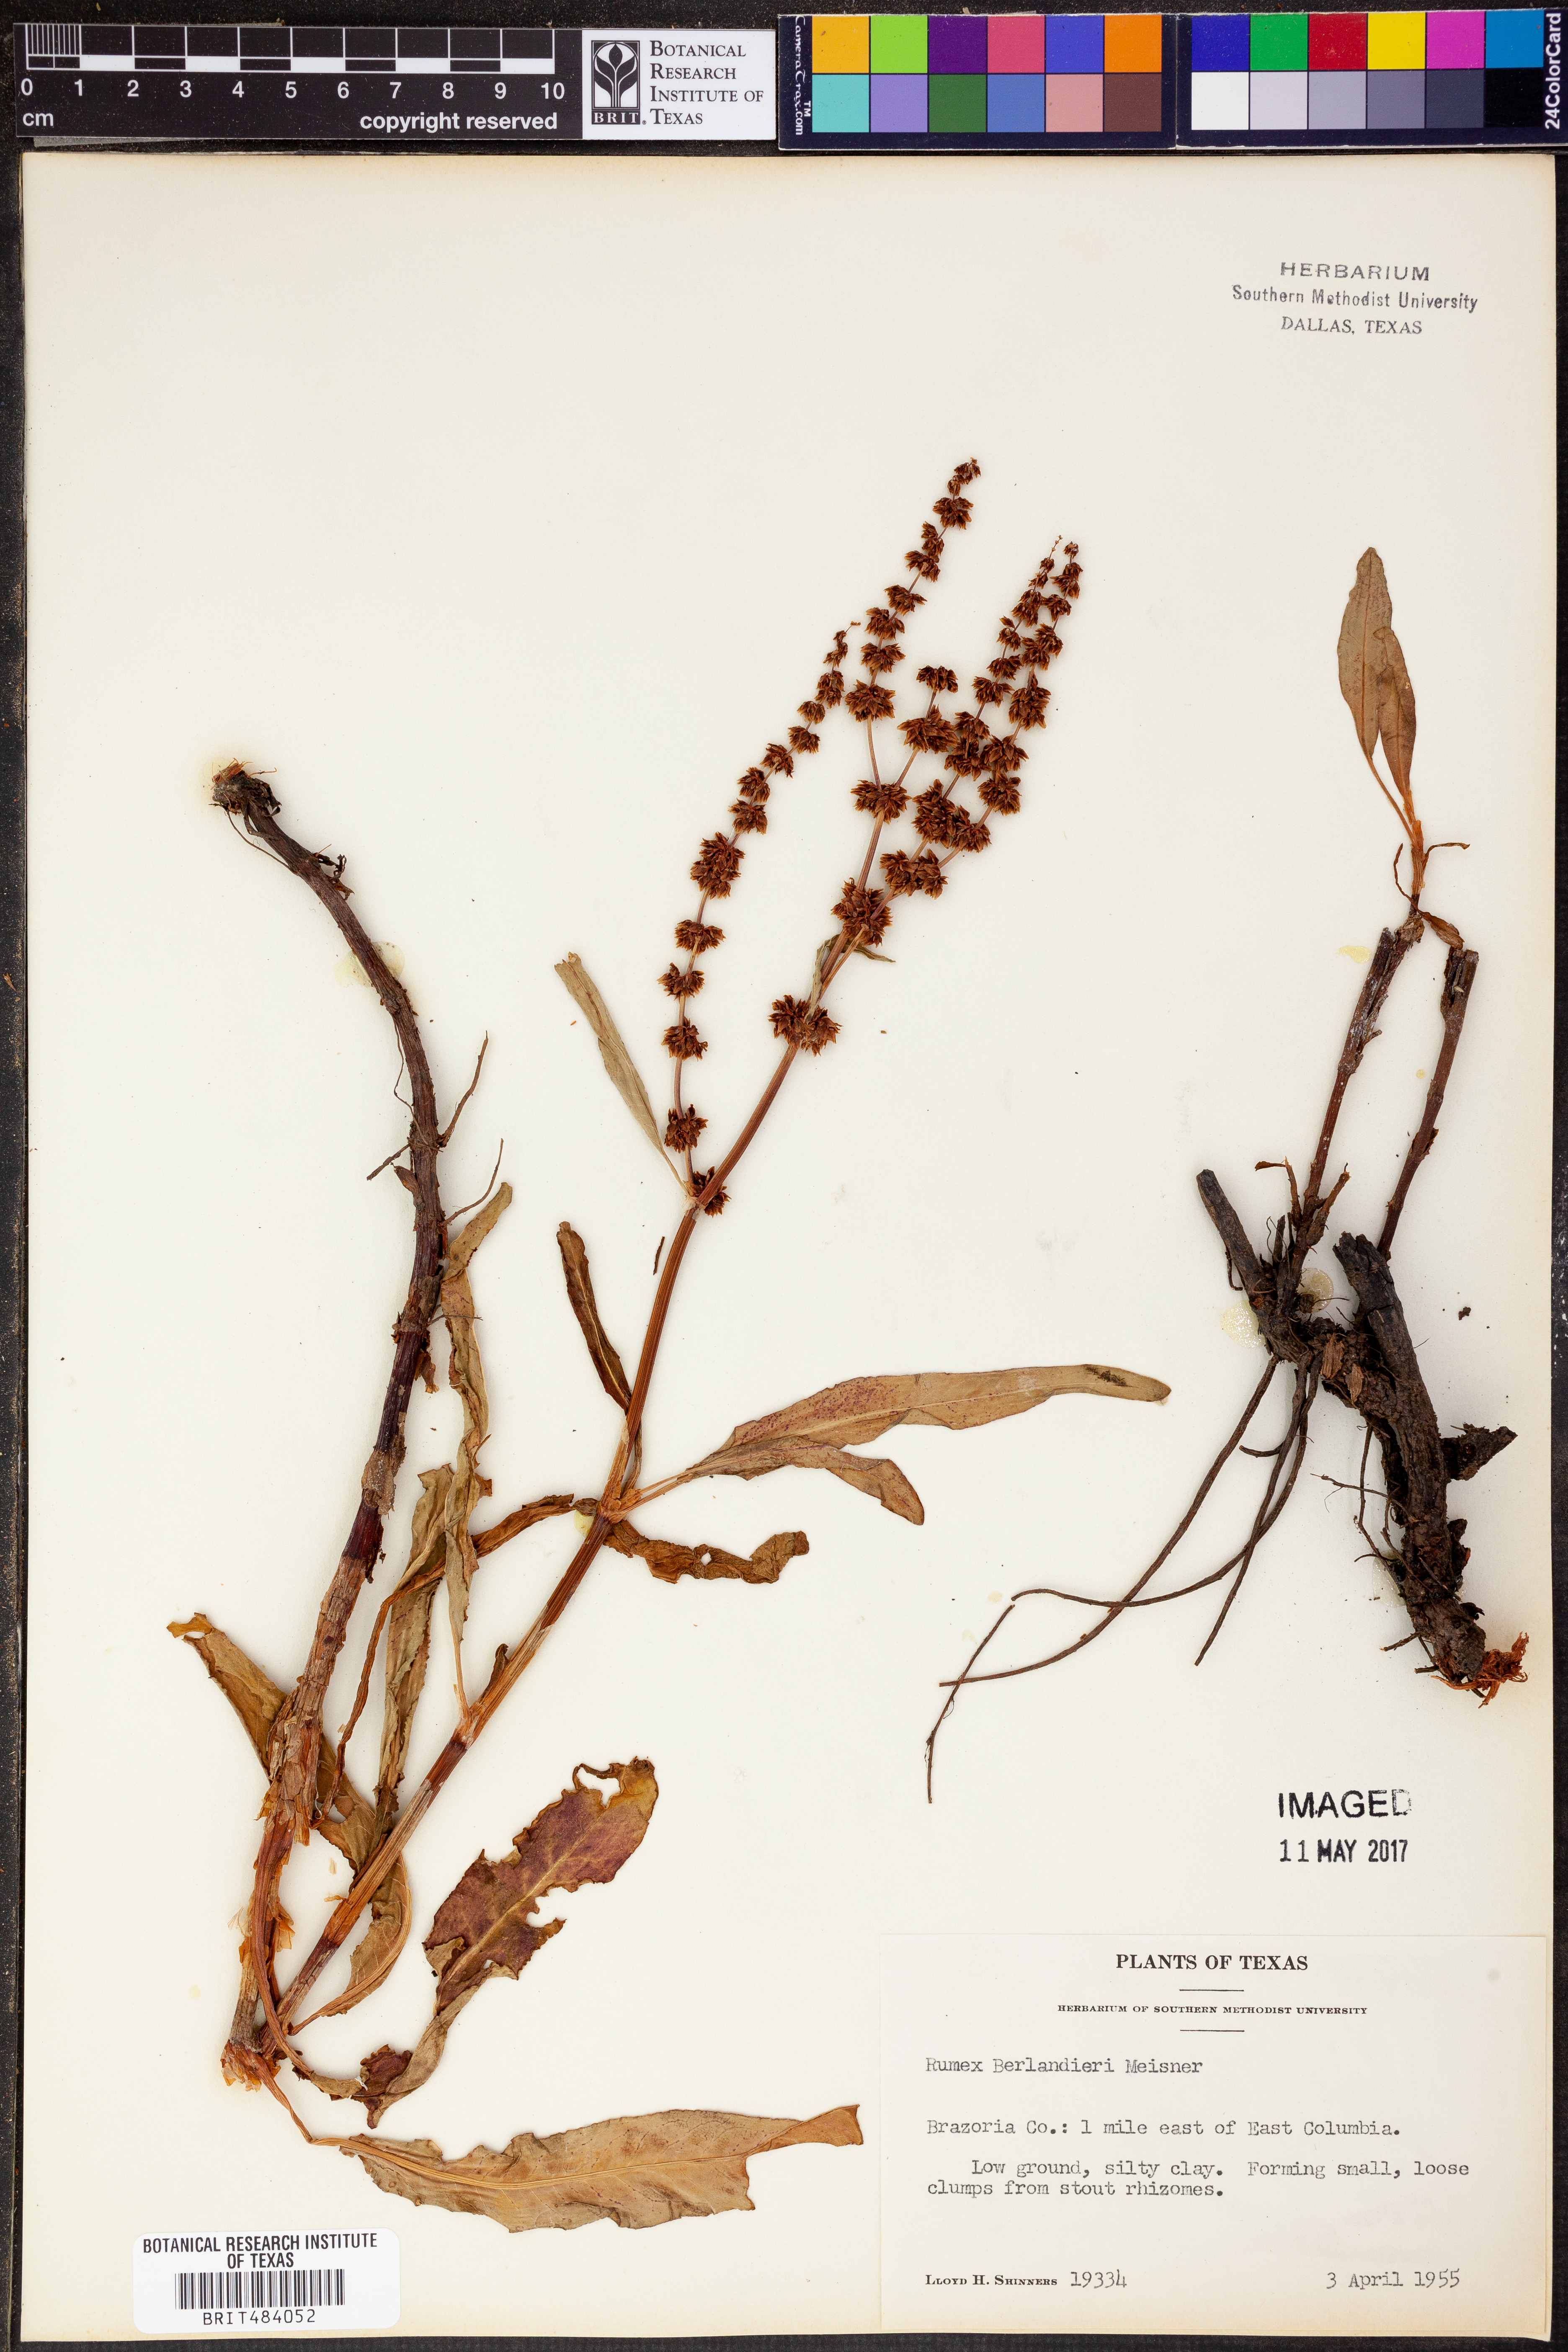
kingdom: Plantae
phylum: Tracheophyta
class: Magnoliopsida
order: Caryophyllales
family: Polygonaceae
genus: Rumex
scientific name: Rumex chrysocarpus
